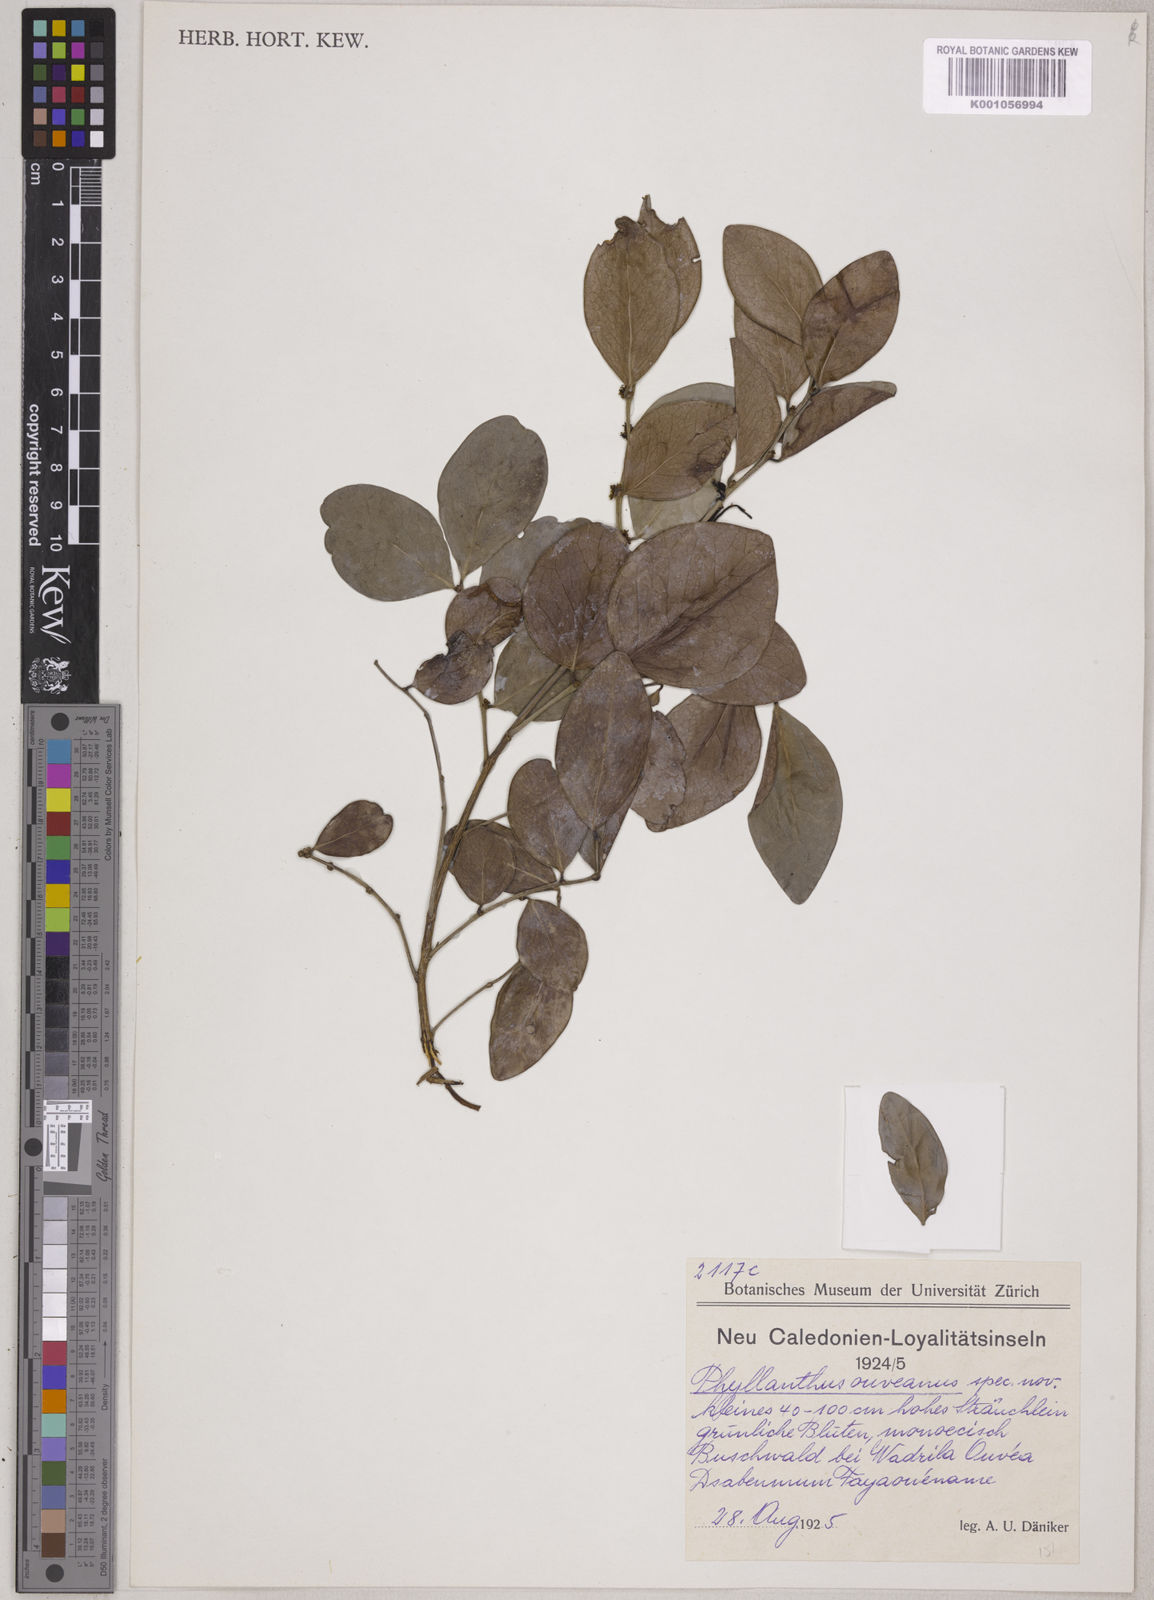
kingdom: Plantae
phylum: Tracheophyta
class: Magnoliopsida
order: Malpighiales
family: Phyllanthaceae
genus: Phyllanthus
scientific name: Phyllanthus
